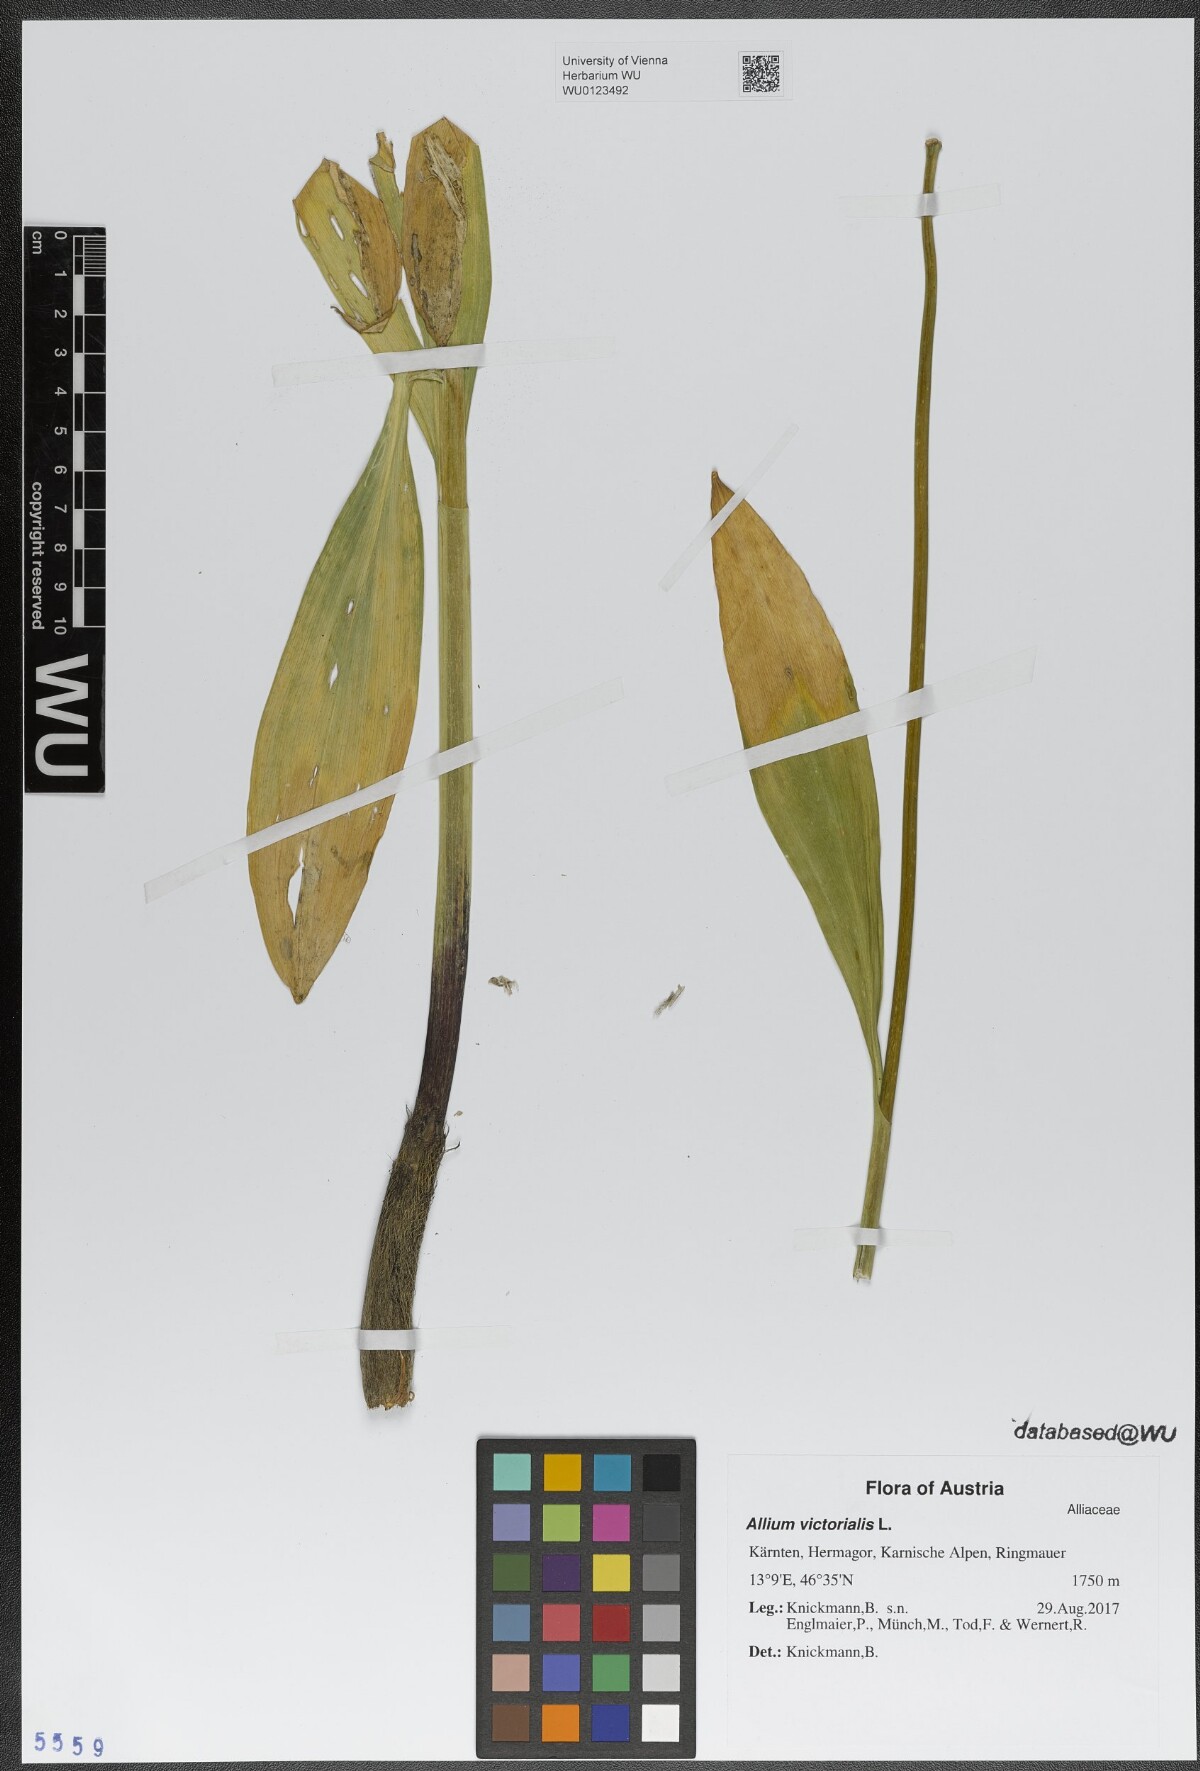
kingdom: Plantae
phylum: Tracheophyta
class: Liliopsida
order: Asparagales
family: Amaryllidaceae
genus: Allium
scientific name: Allium victorialis
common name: Alpine leek
